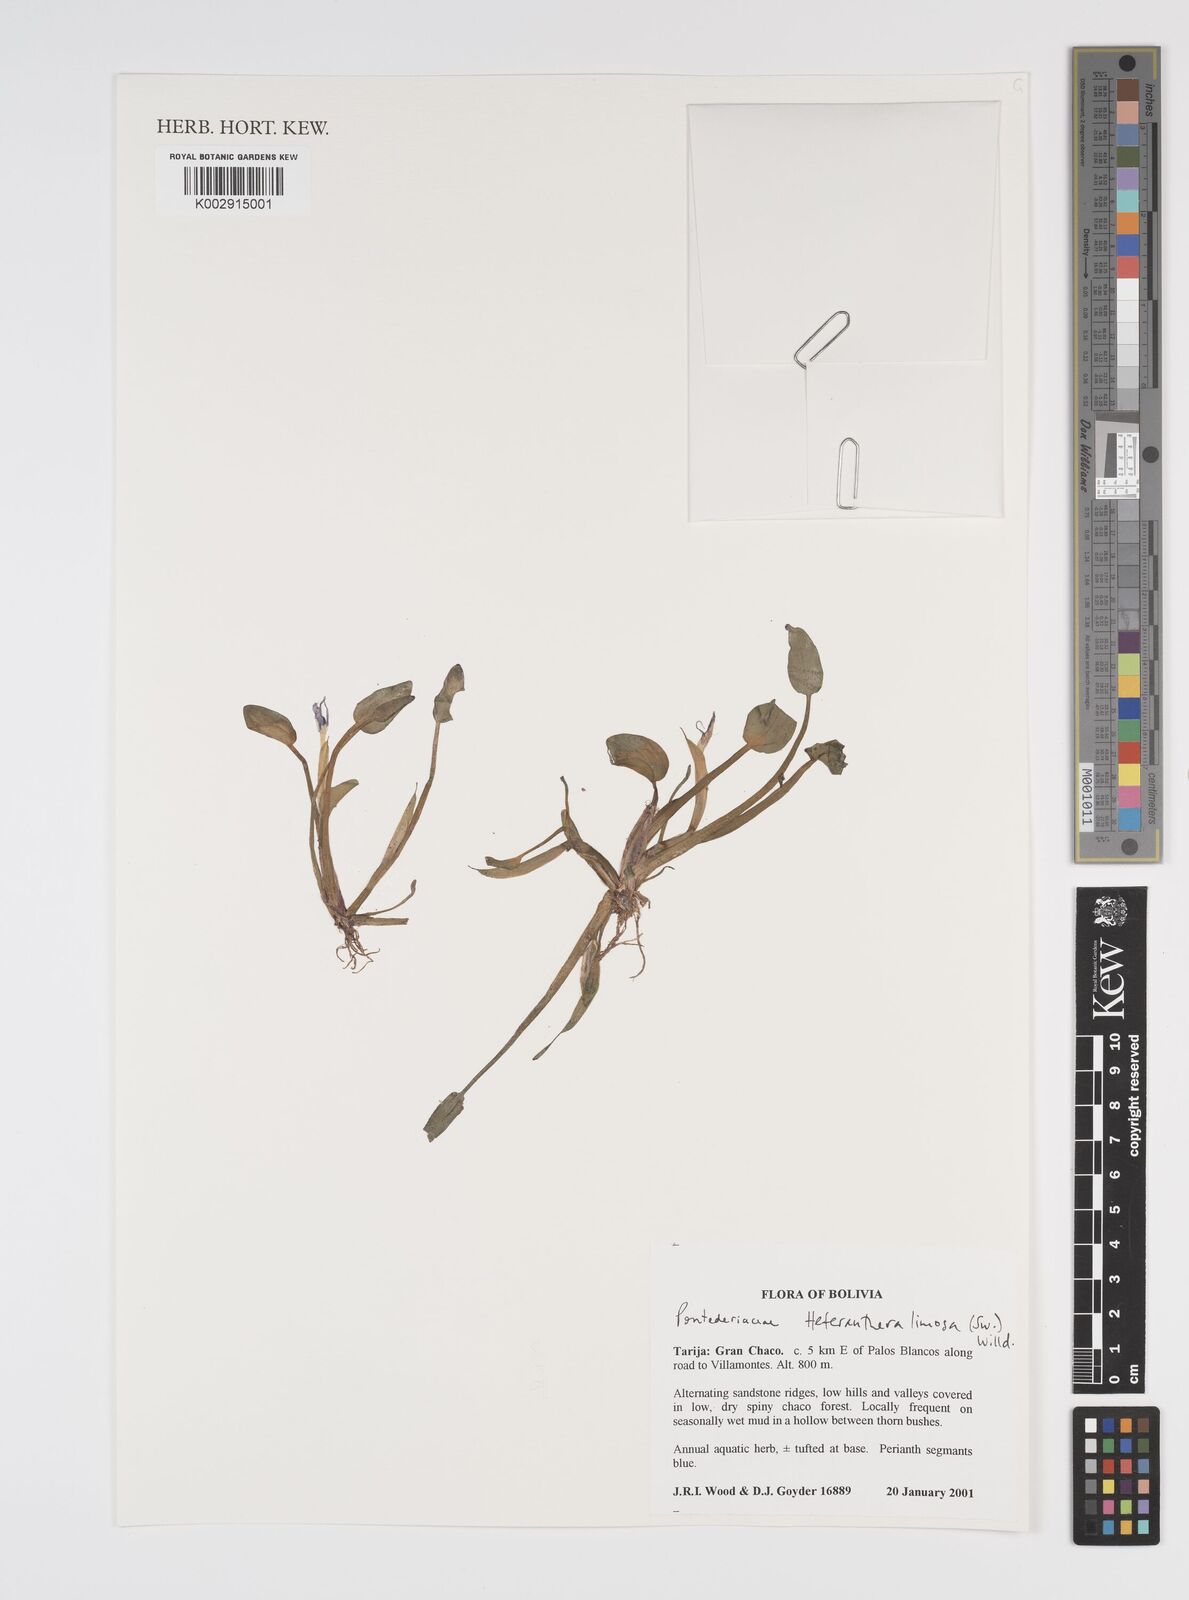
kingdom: Plantae
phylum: Tracheophyta
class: Liliopsida
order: Commelinales
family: Pontederiaceae
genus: Heteranthera
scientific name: Heteranthera limosa
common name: Blue mud-plantain
